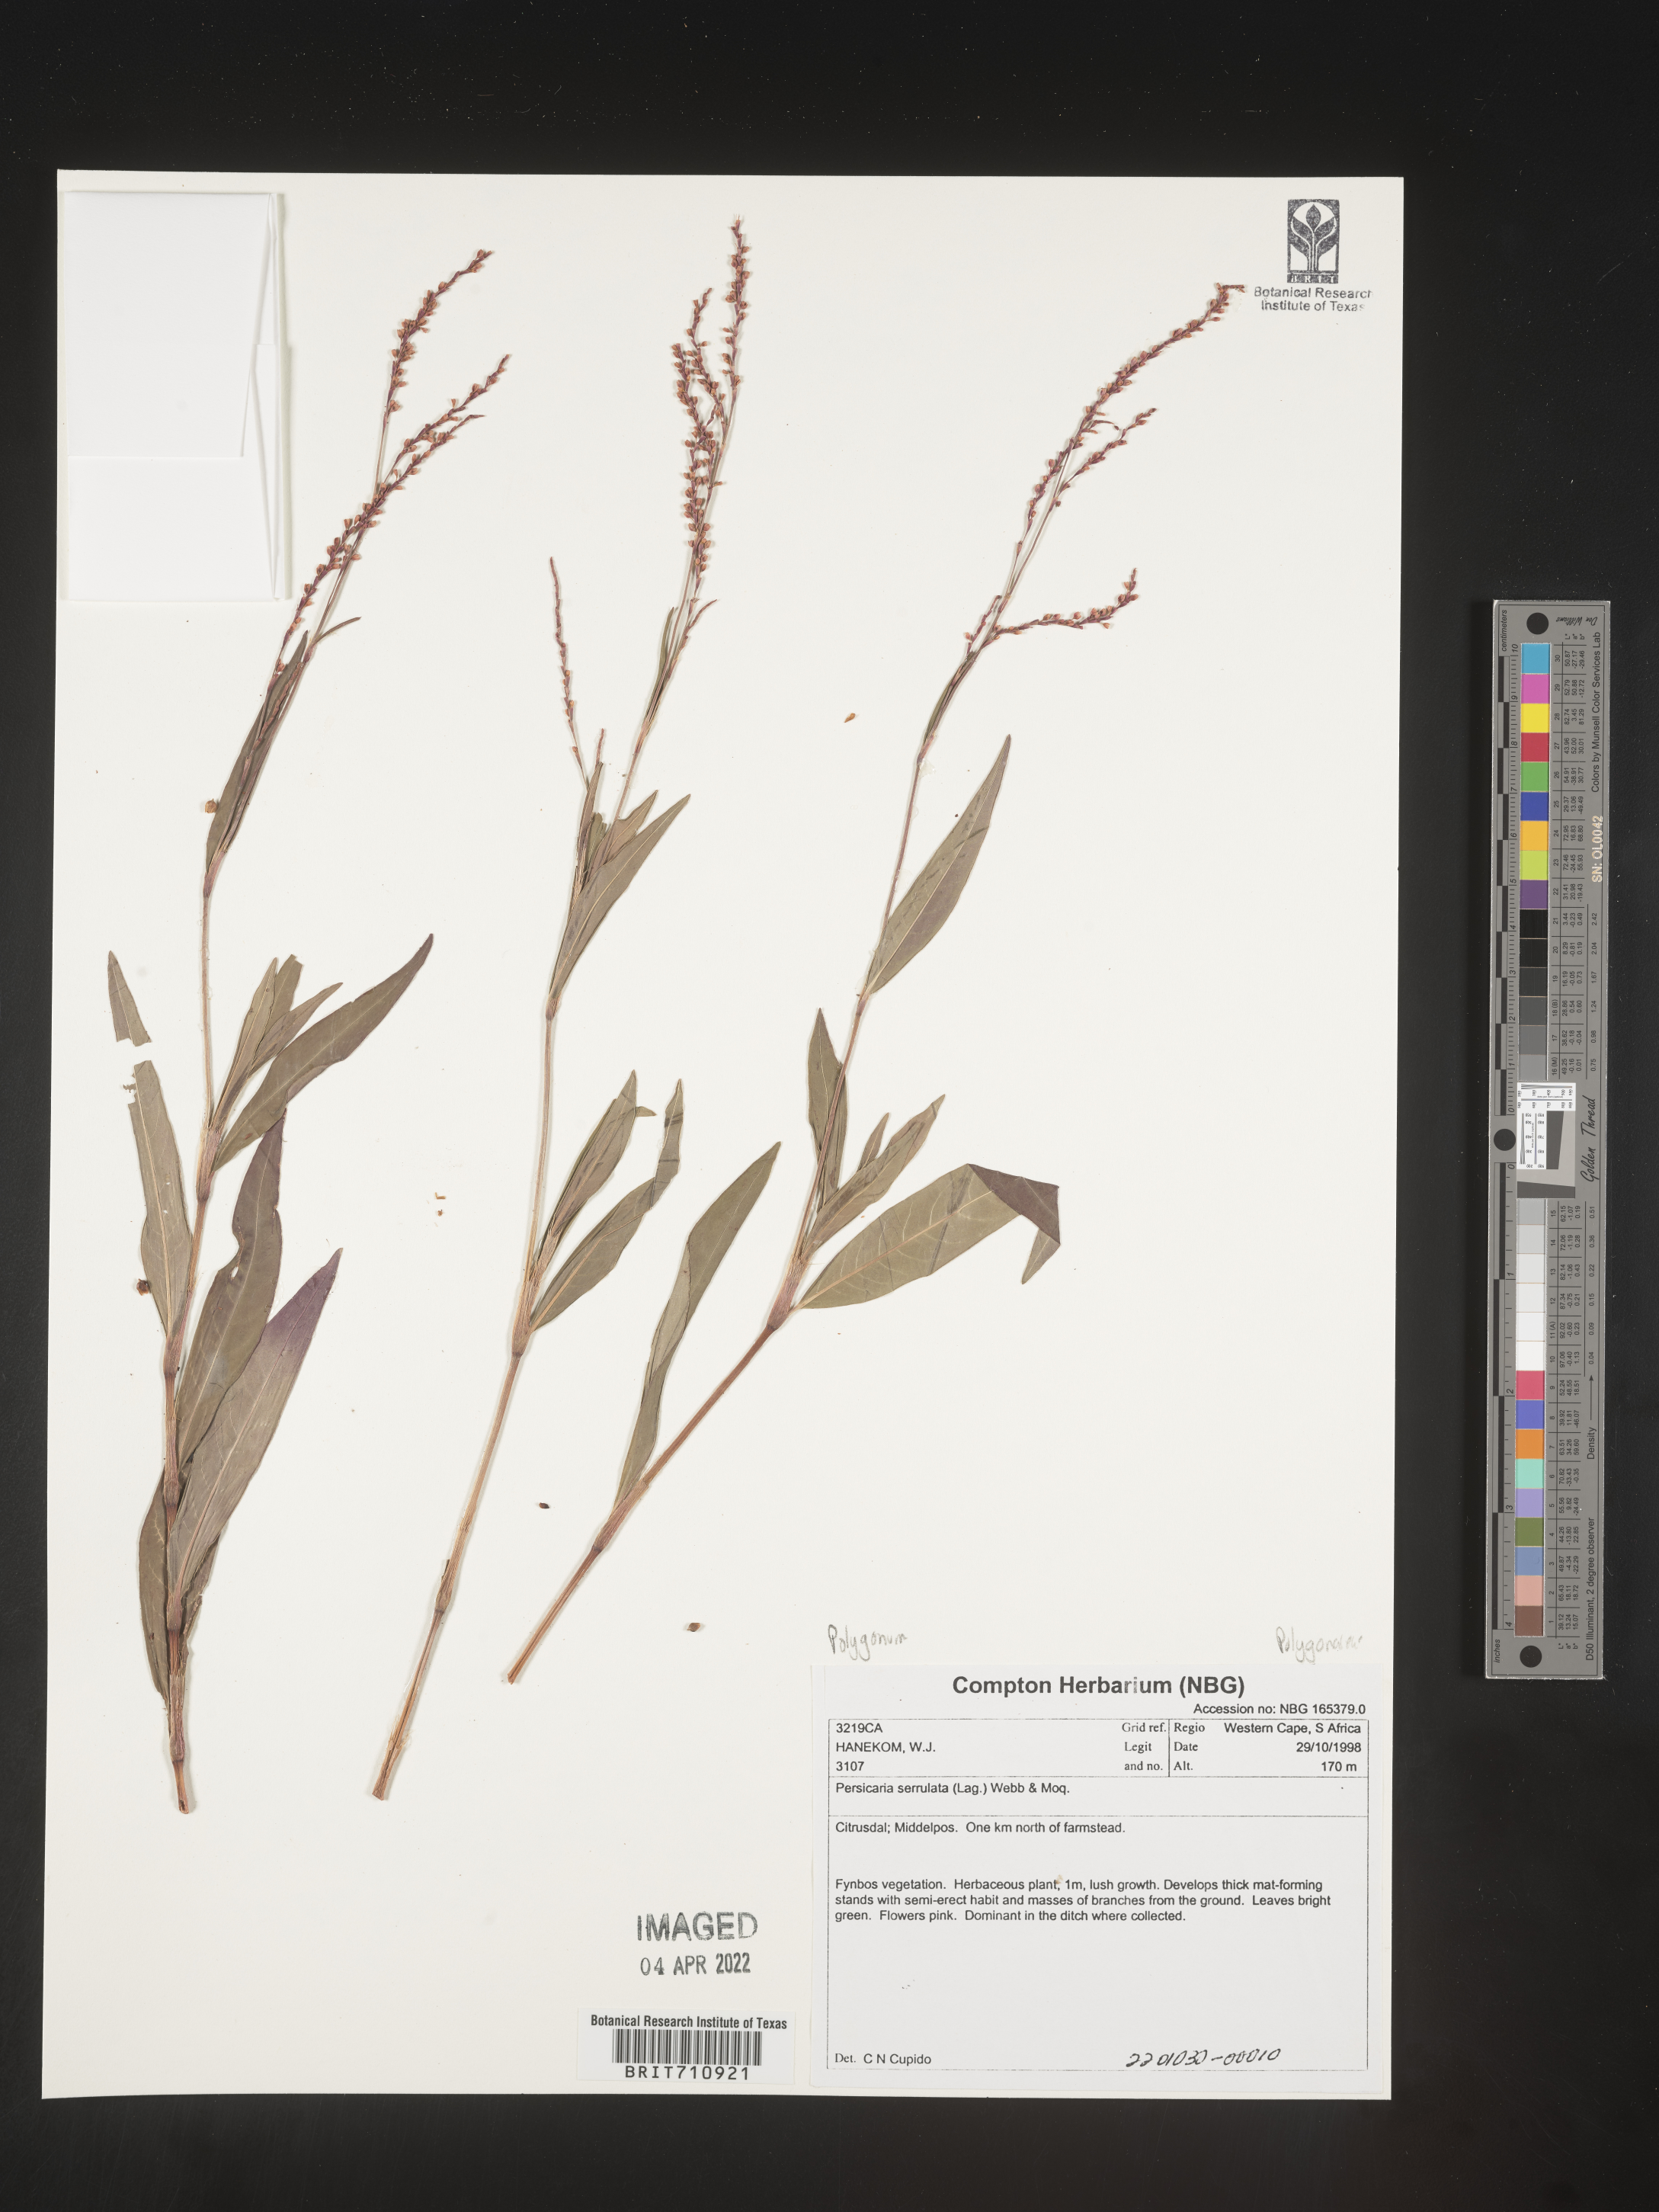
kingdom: Plantae
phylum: Tracheophyta
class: Magnoliopsida
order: Caryophyllales
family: Polygonaceae
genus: Polygonum
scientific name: Polygonum
